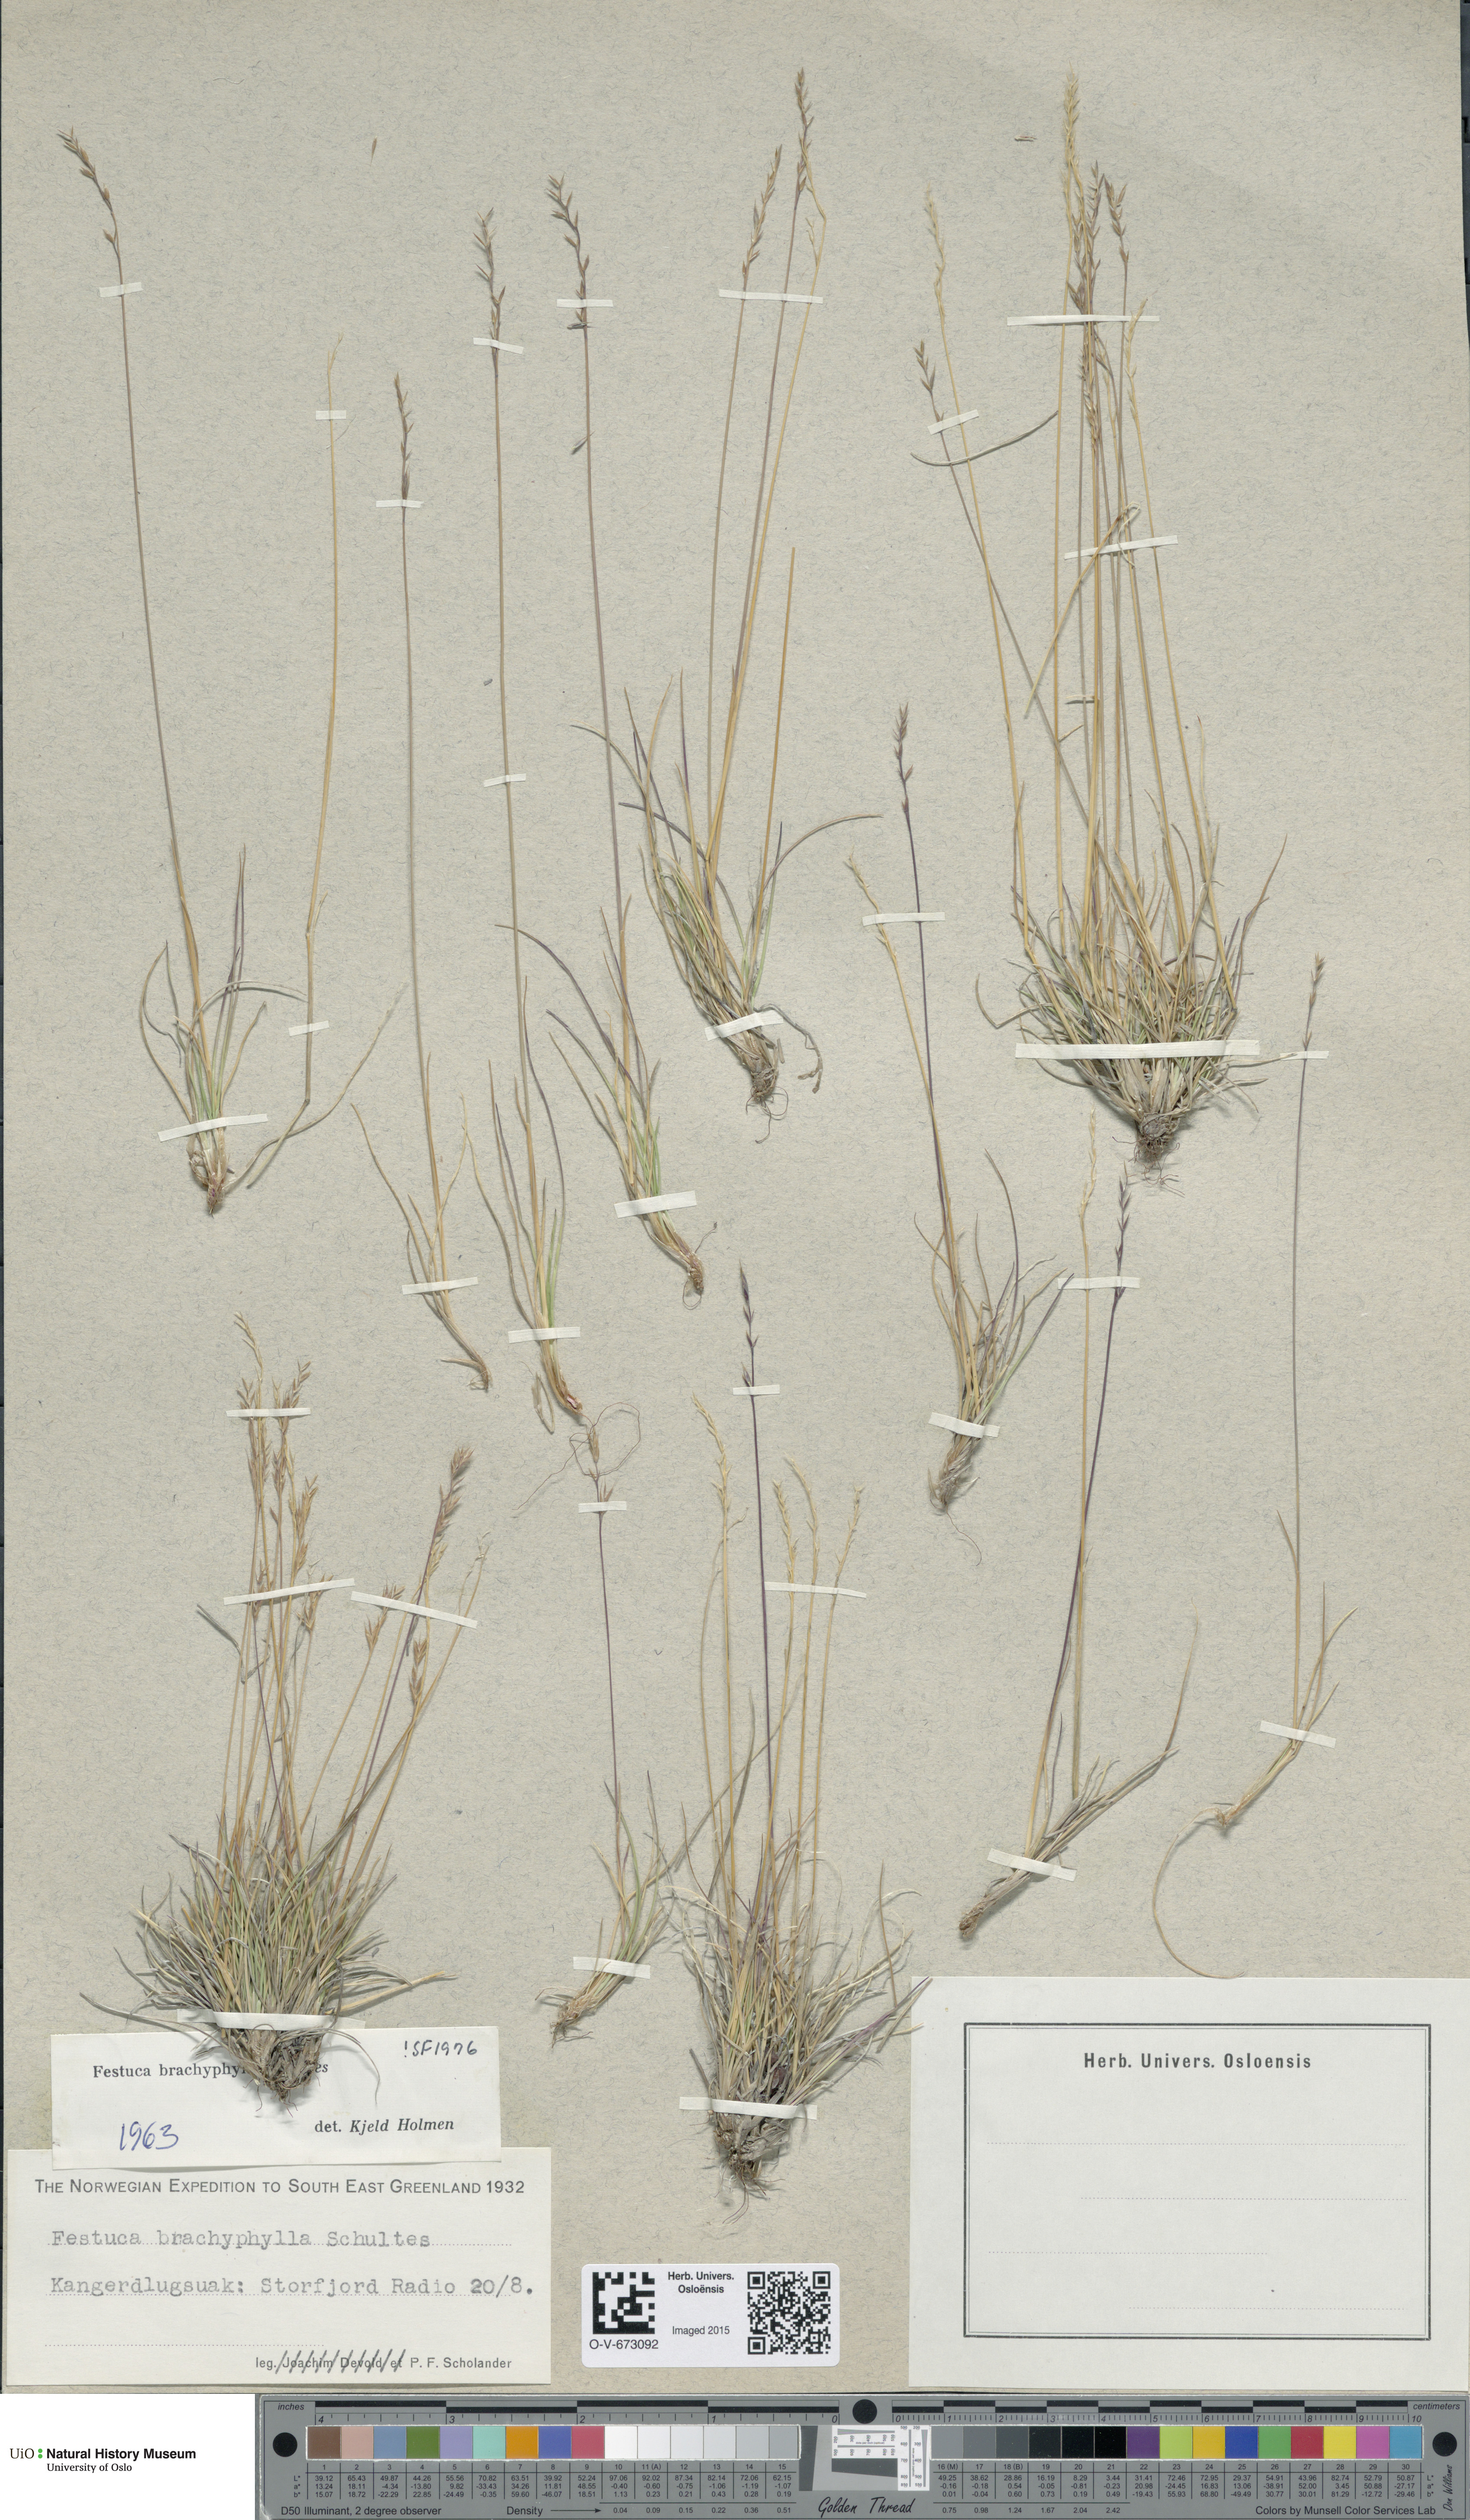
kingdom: Plantae
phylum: Tracheophyta
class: Liliopsida
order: Poales
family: Poaceae
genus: Festuca
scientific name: Festuca brachyphylla
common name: Alpine fescue
